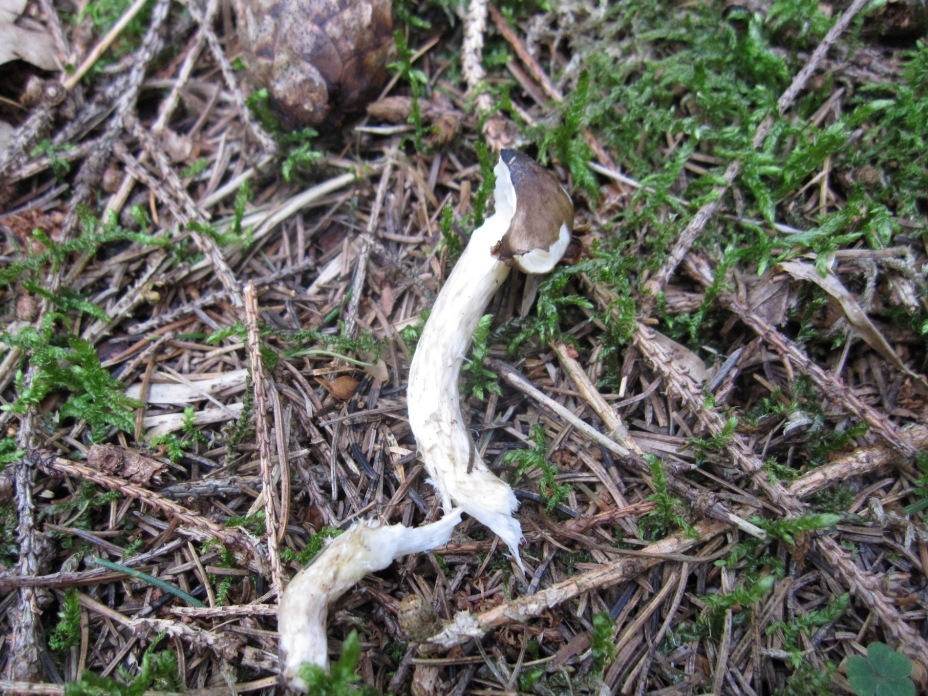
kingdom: Fungi
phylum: Basidiomycota
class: Agaricomycetes
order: Agaricales
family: Hygrophoraceae
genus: Hygrophorus
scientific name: Hygrophorus olivaceoalbus
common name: hvidbrun sneglehat
